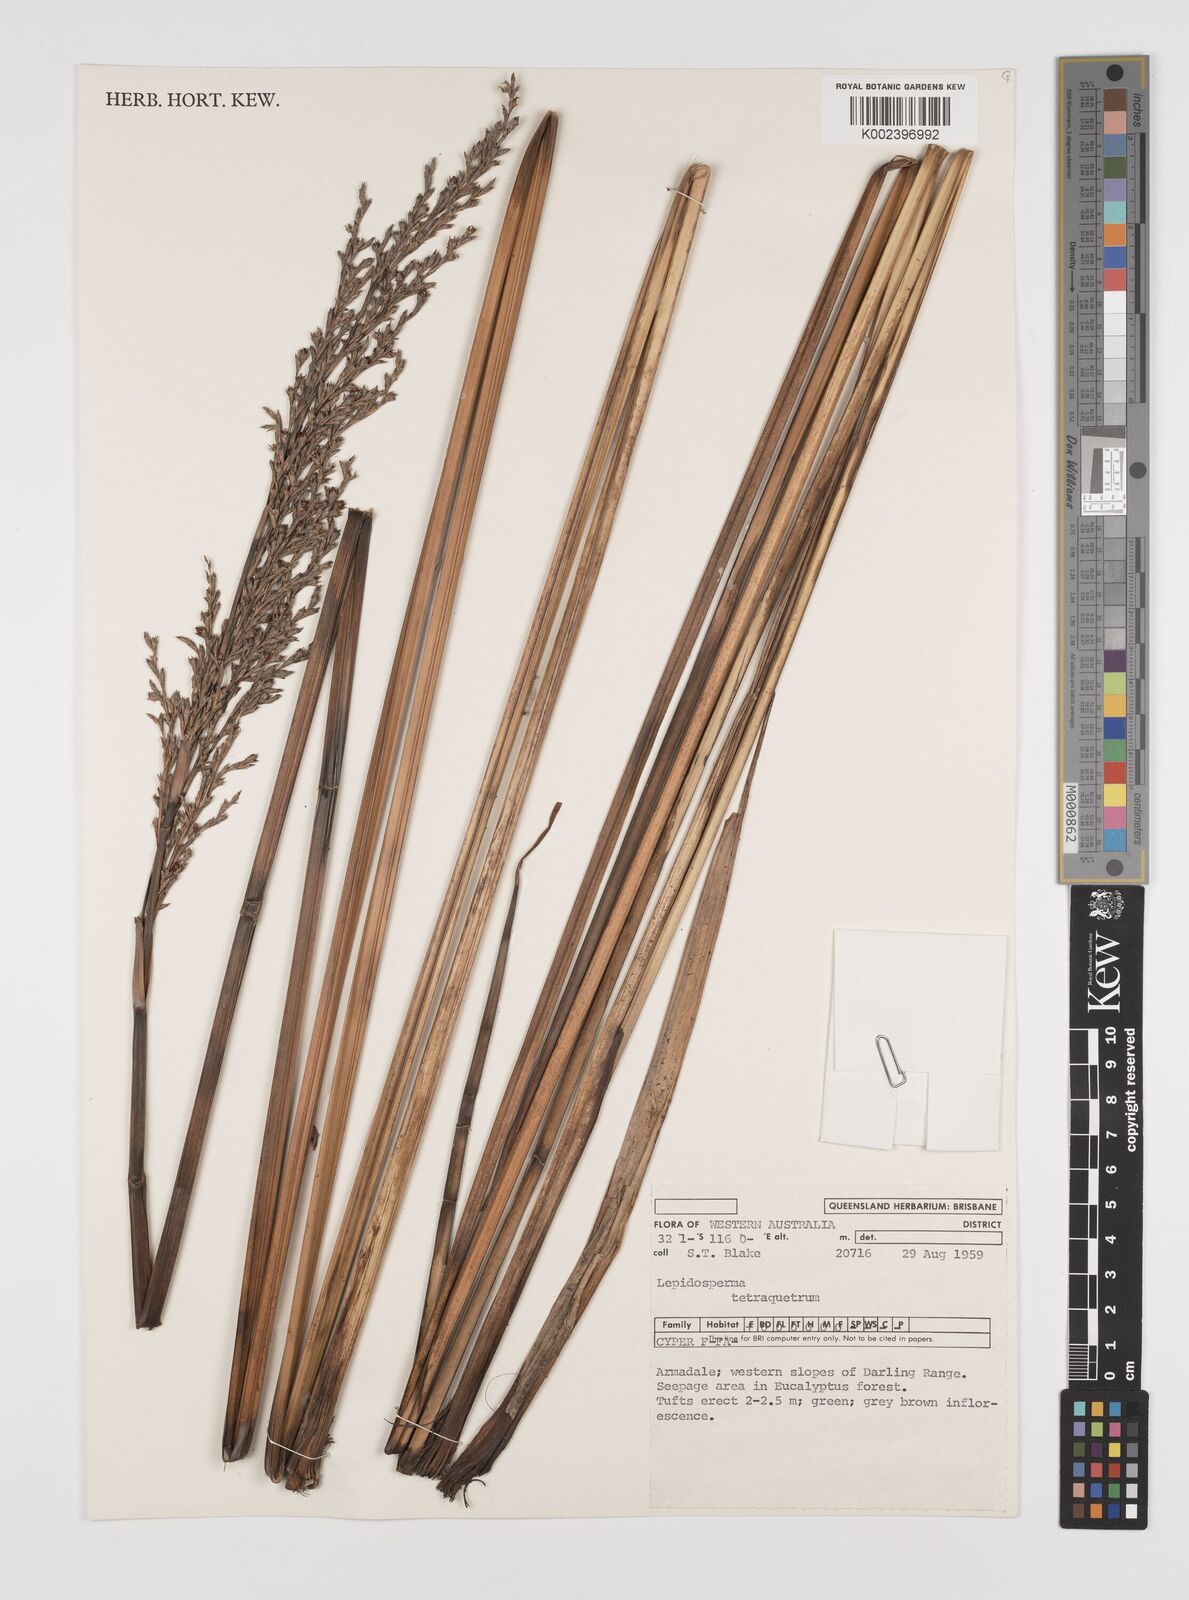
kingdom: Plantae
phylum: Tracheophyta
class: Liliopsida
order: Poales
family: Cyperaceae
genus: Lepidosperma
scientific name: Lepidosperma tetraquetrum
